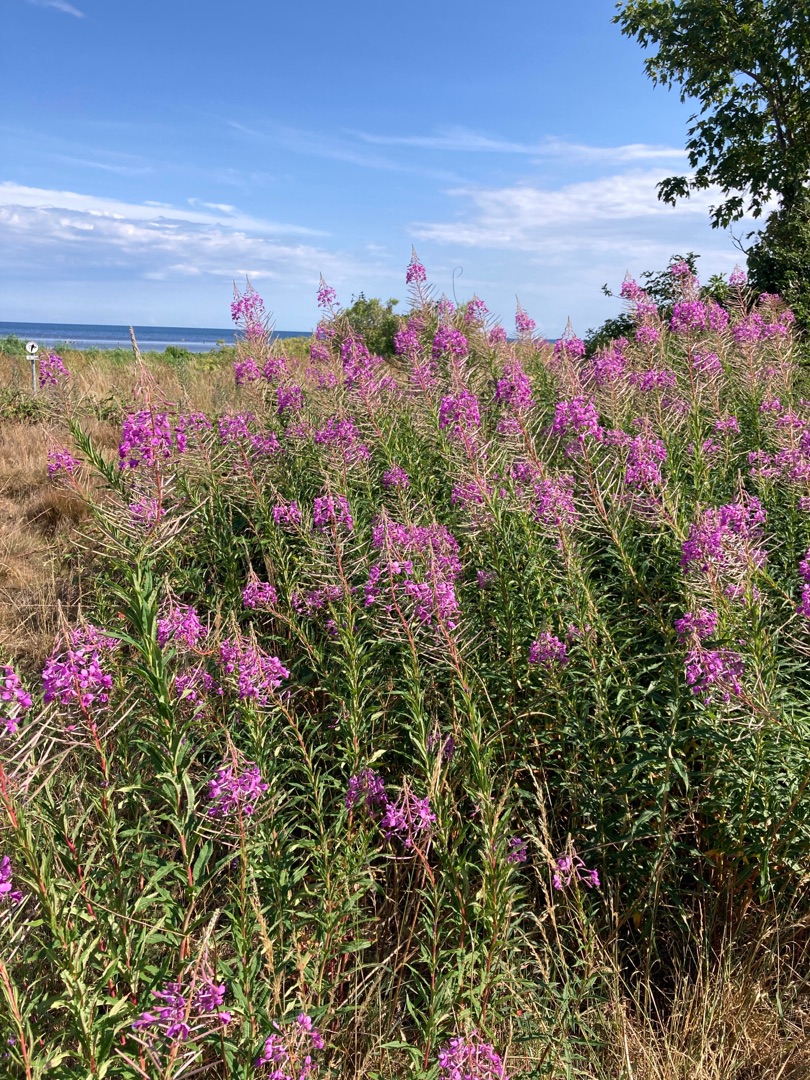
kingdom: Plantae
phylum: Tracheophyta
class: Magnoliopsida
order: Myrtales
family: Onagraceae
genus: Chamaenerion
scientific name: Chamaenerion angustifolium
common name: Gederams
